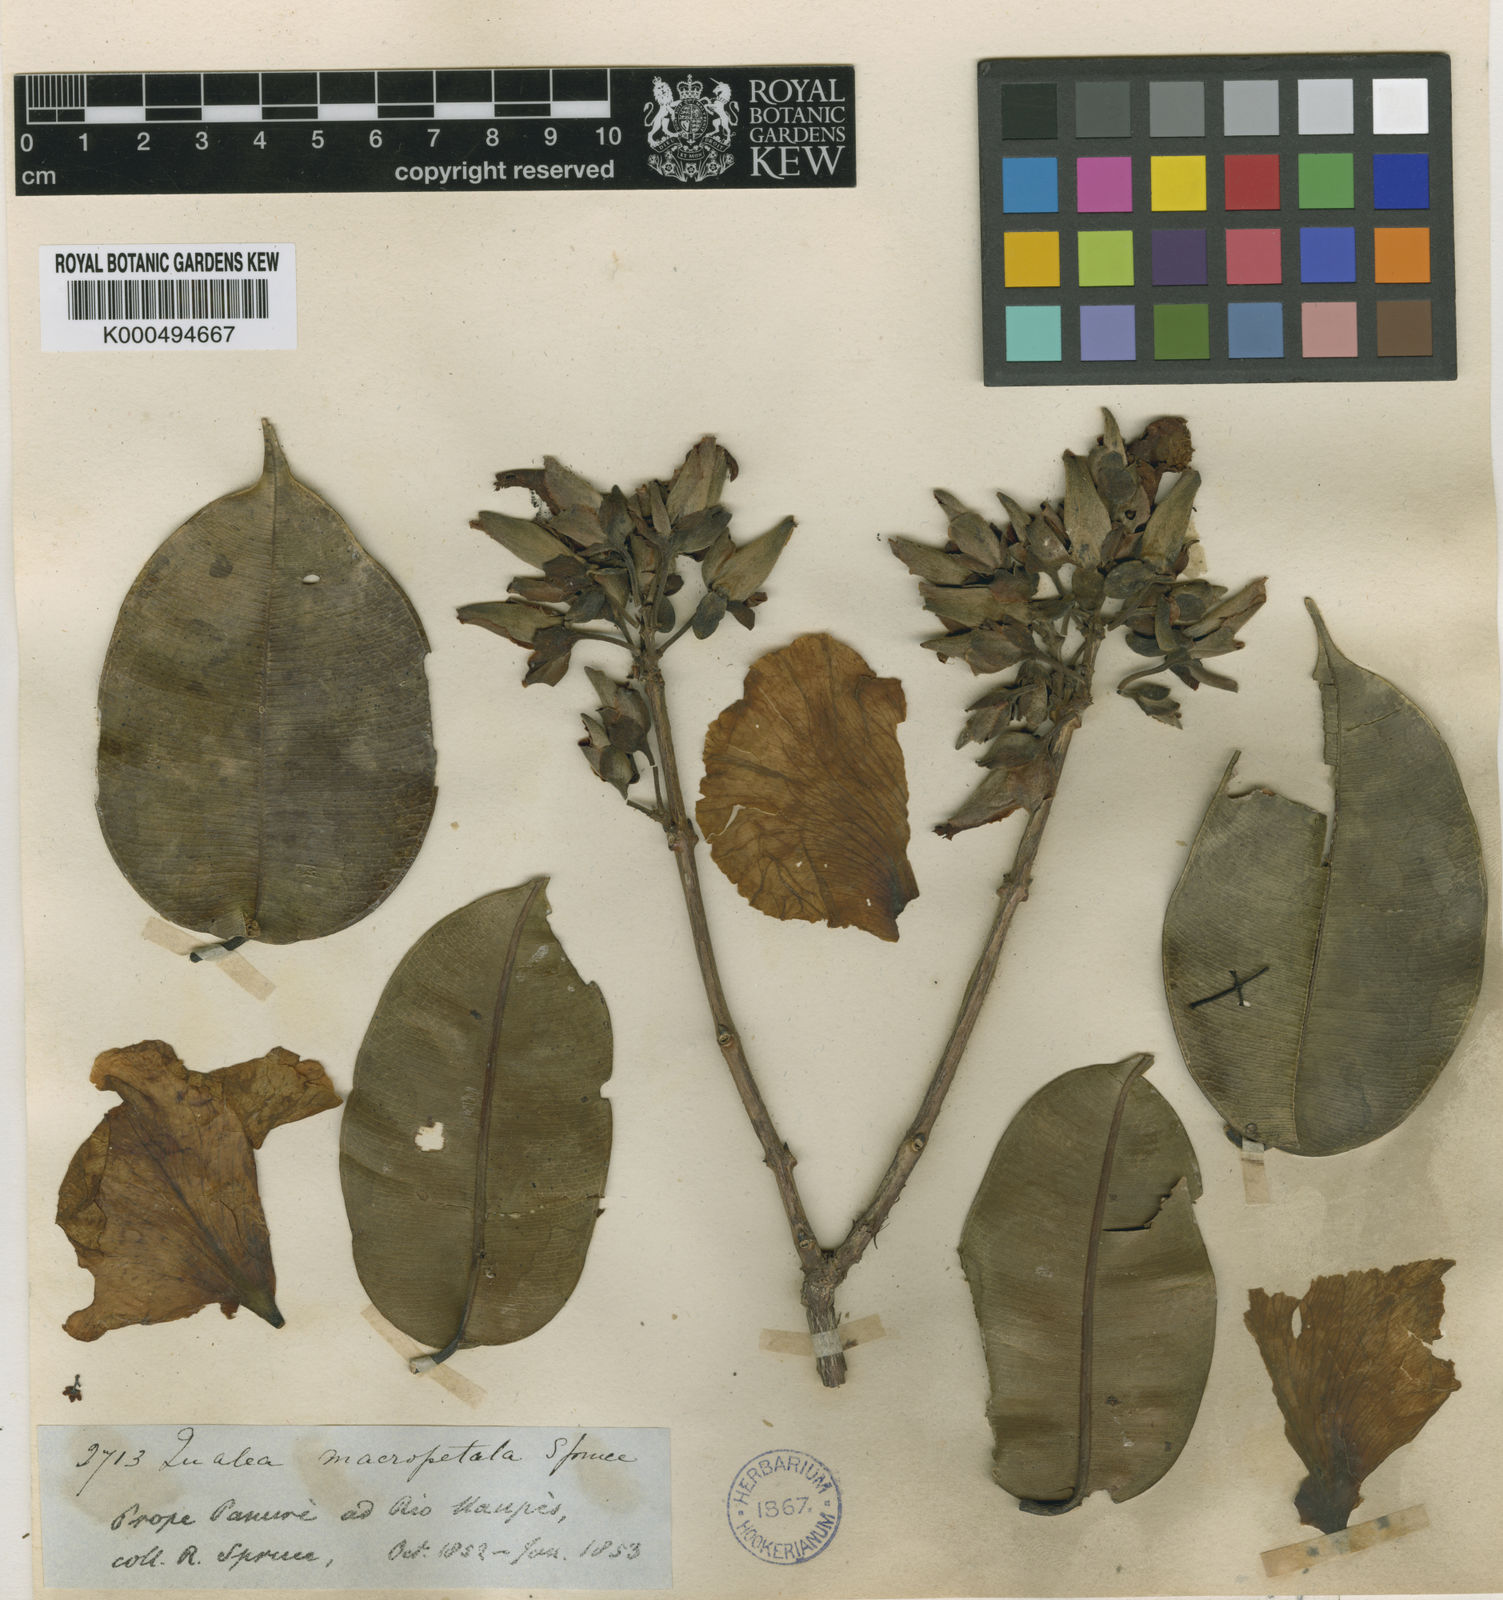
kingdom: Plantae
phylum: Tracheophyta
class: Magnoliopsida
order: Myrtales
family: Vochysiaceae
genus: Qualea
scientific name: Qualea macropetala
